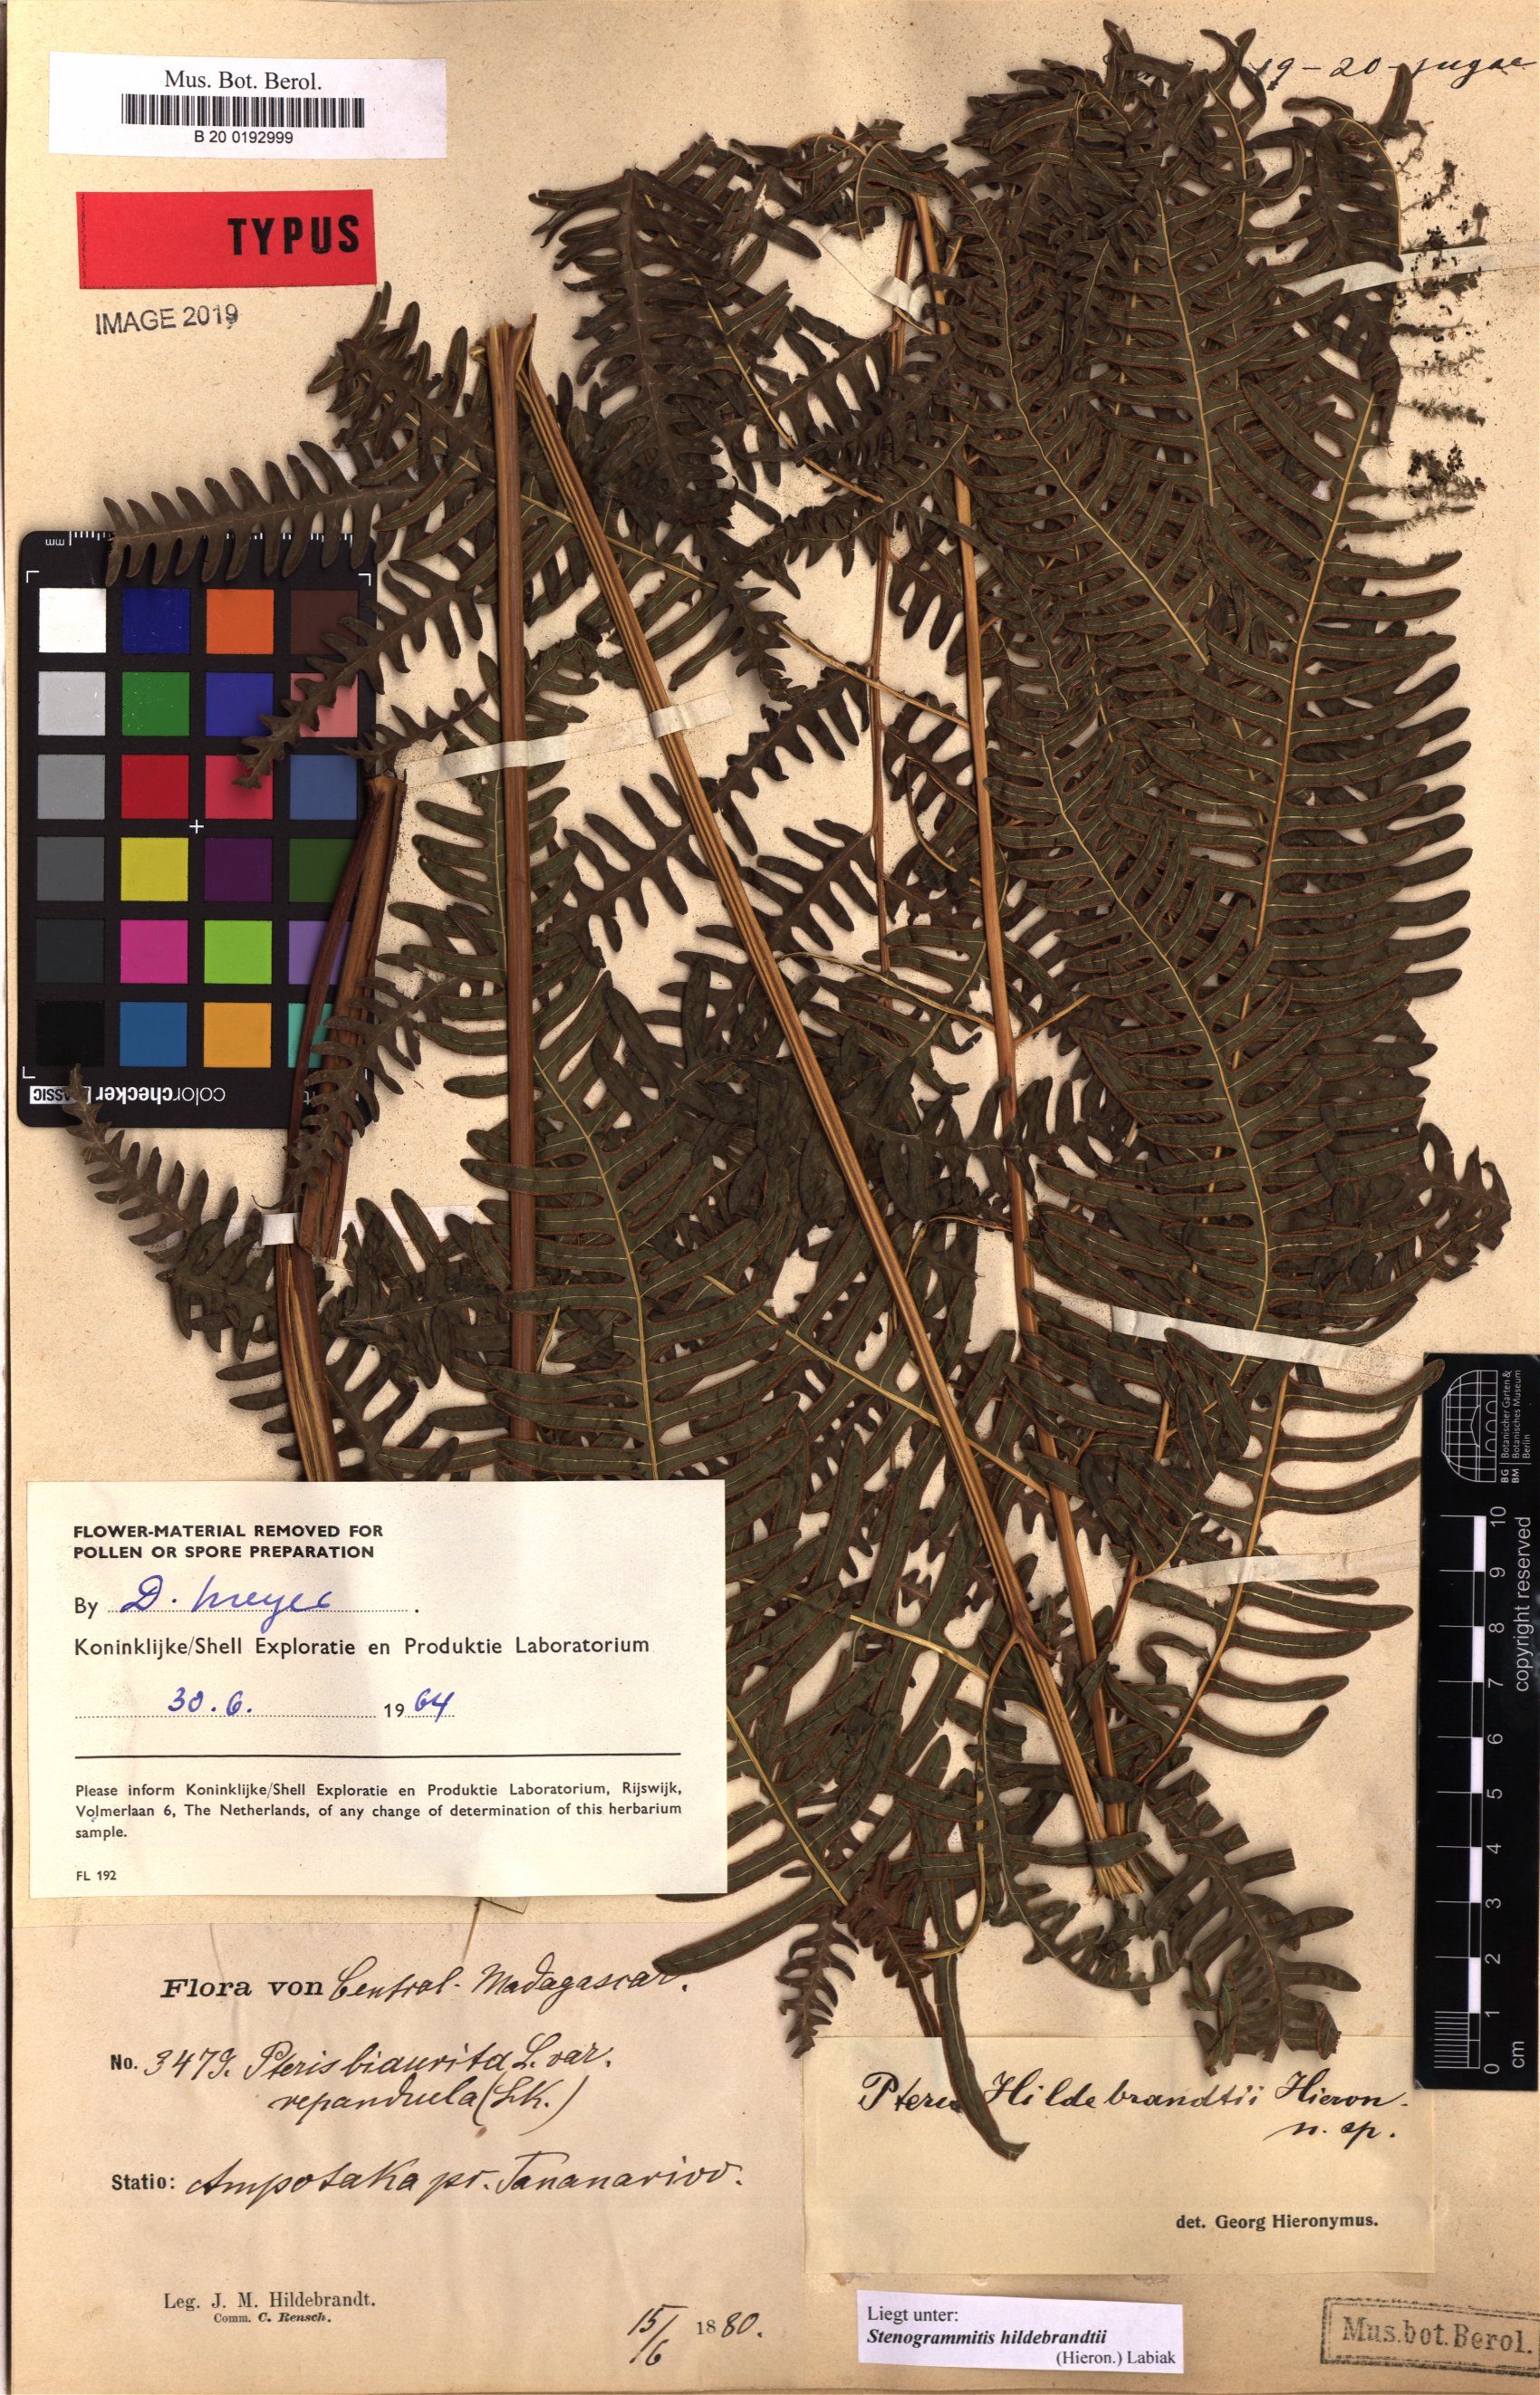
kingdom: Plantae
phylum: Tracheophyta
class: Polypodiopsida
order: Polypodiales
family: Pteridaceae
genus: Pteris
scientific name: Pteris friesii
